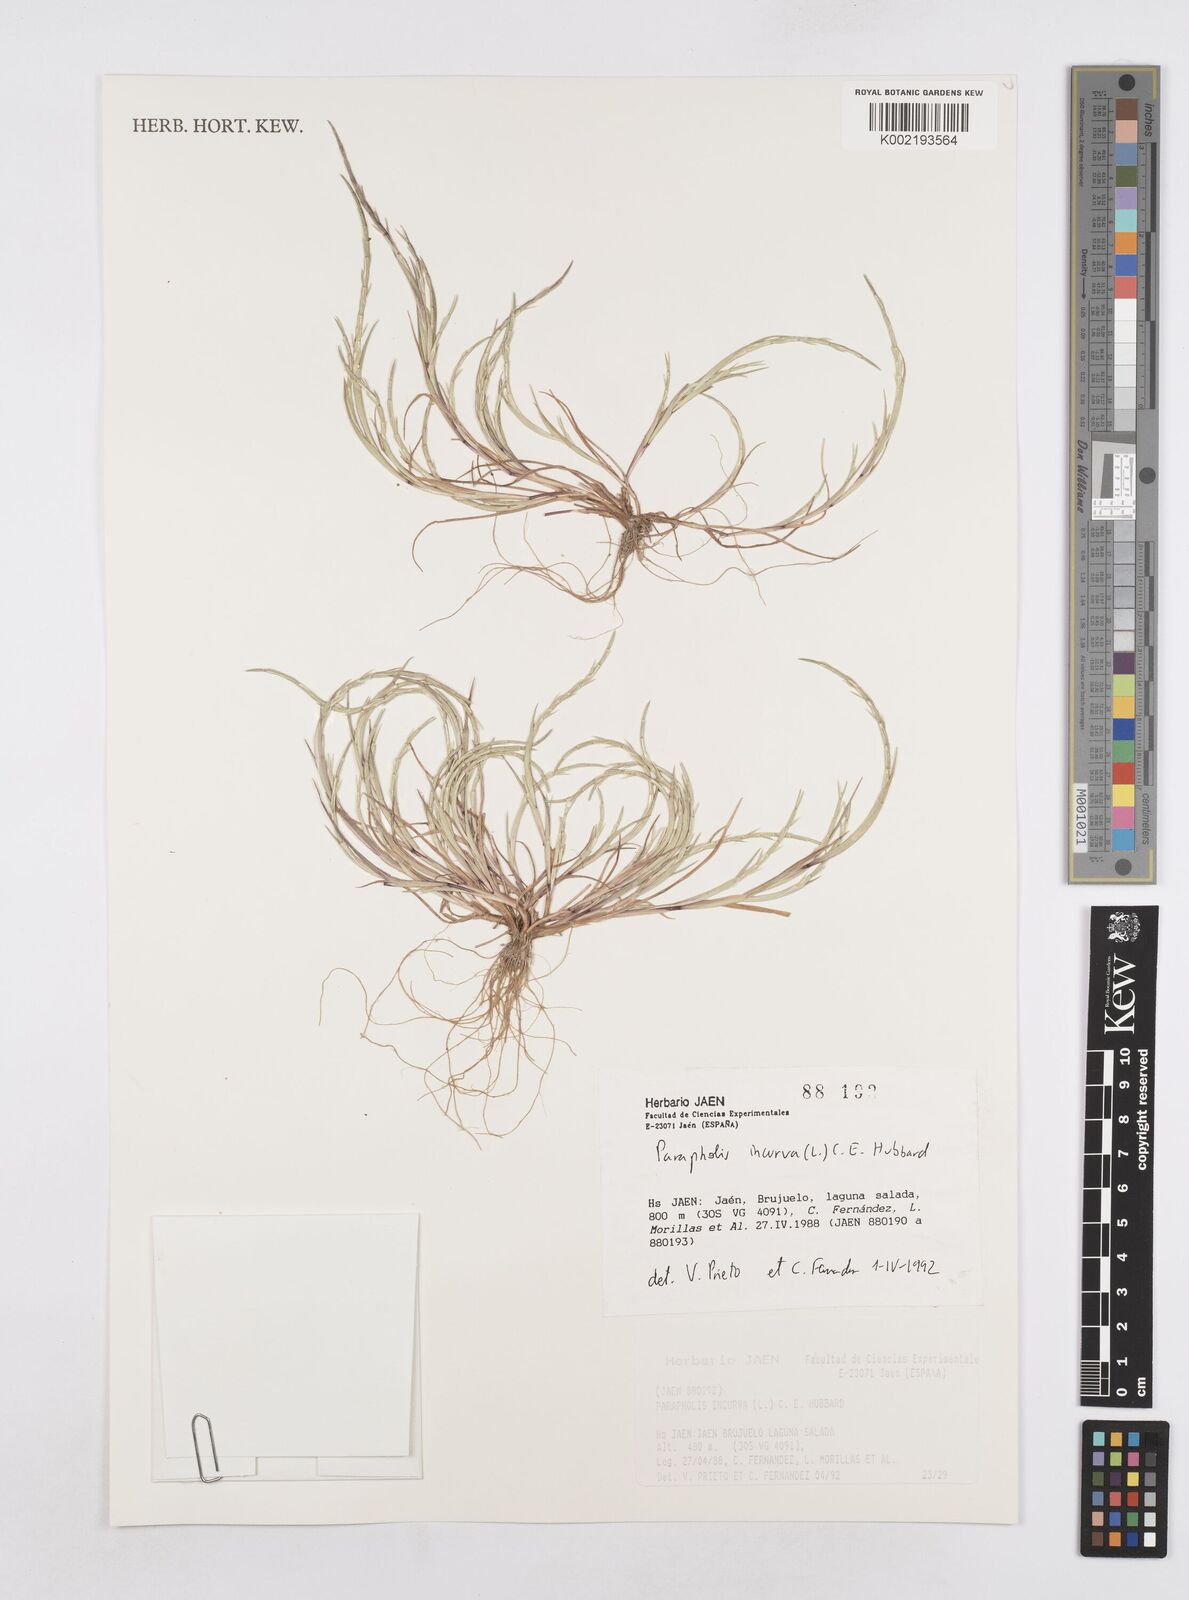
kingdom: Plantae
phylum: Tracheophyta
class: Liliopsida
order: Poales
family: Poaceae
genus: Parapholis
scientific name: Parapholis incurva
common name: Curved sicklegrass
